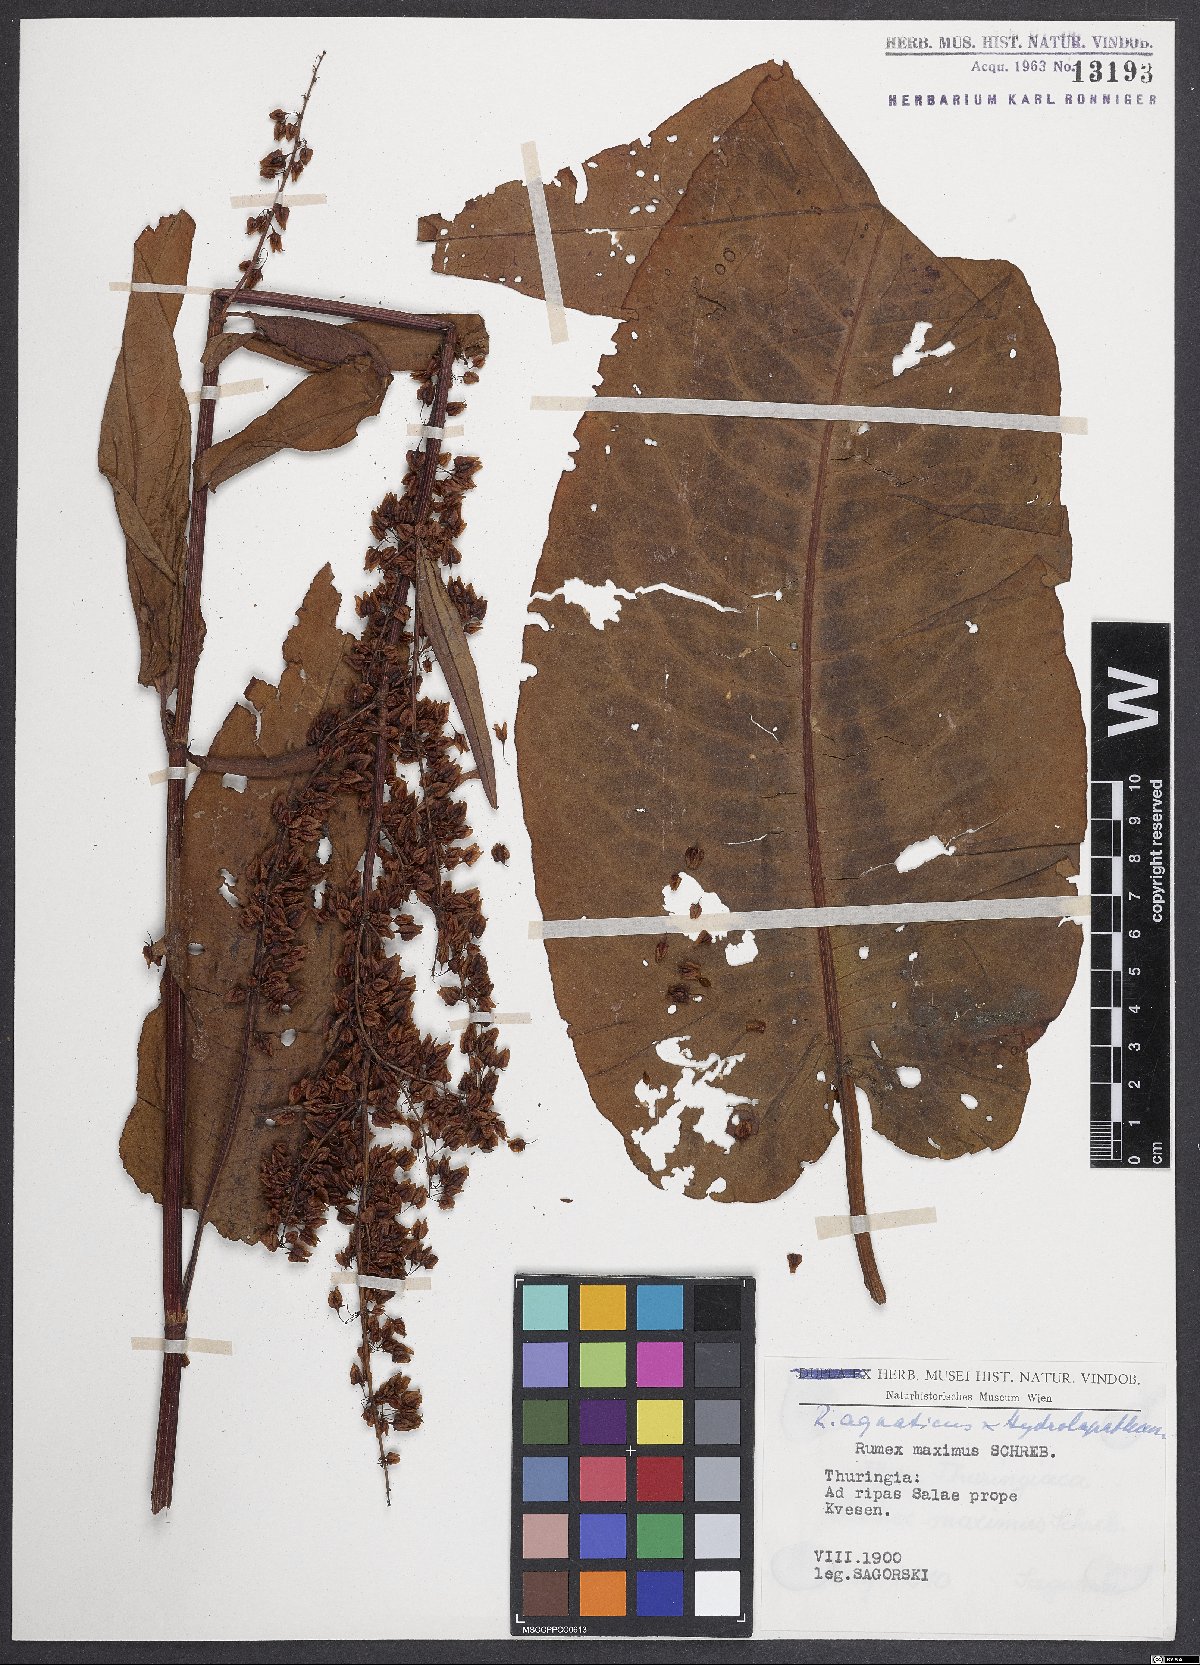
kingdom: Plantae
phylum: Tracheophyta
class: Magnoliopsida
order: Caryophyllales
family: Polygonaceae
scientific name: Polygonaceae
